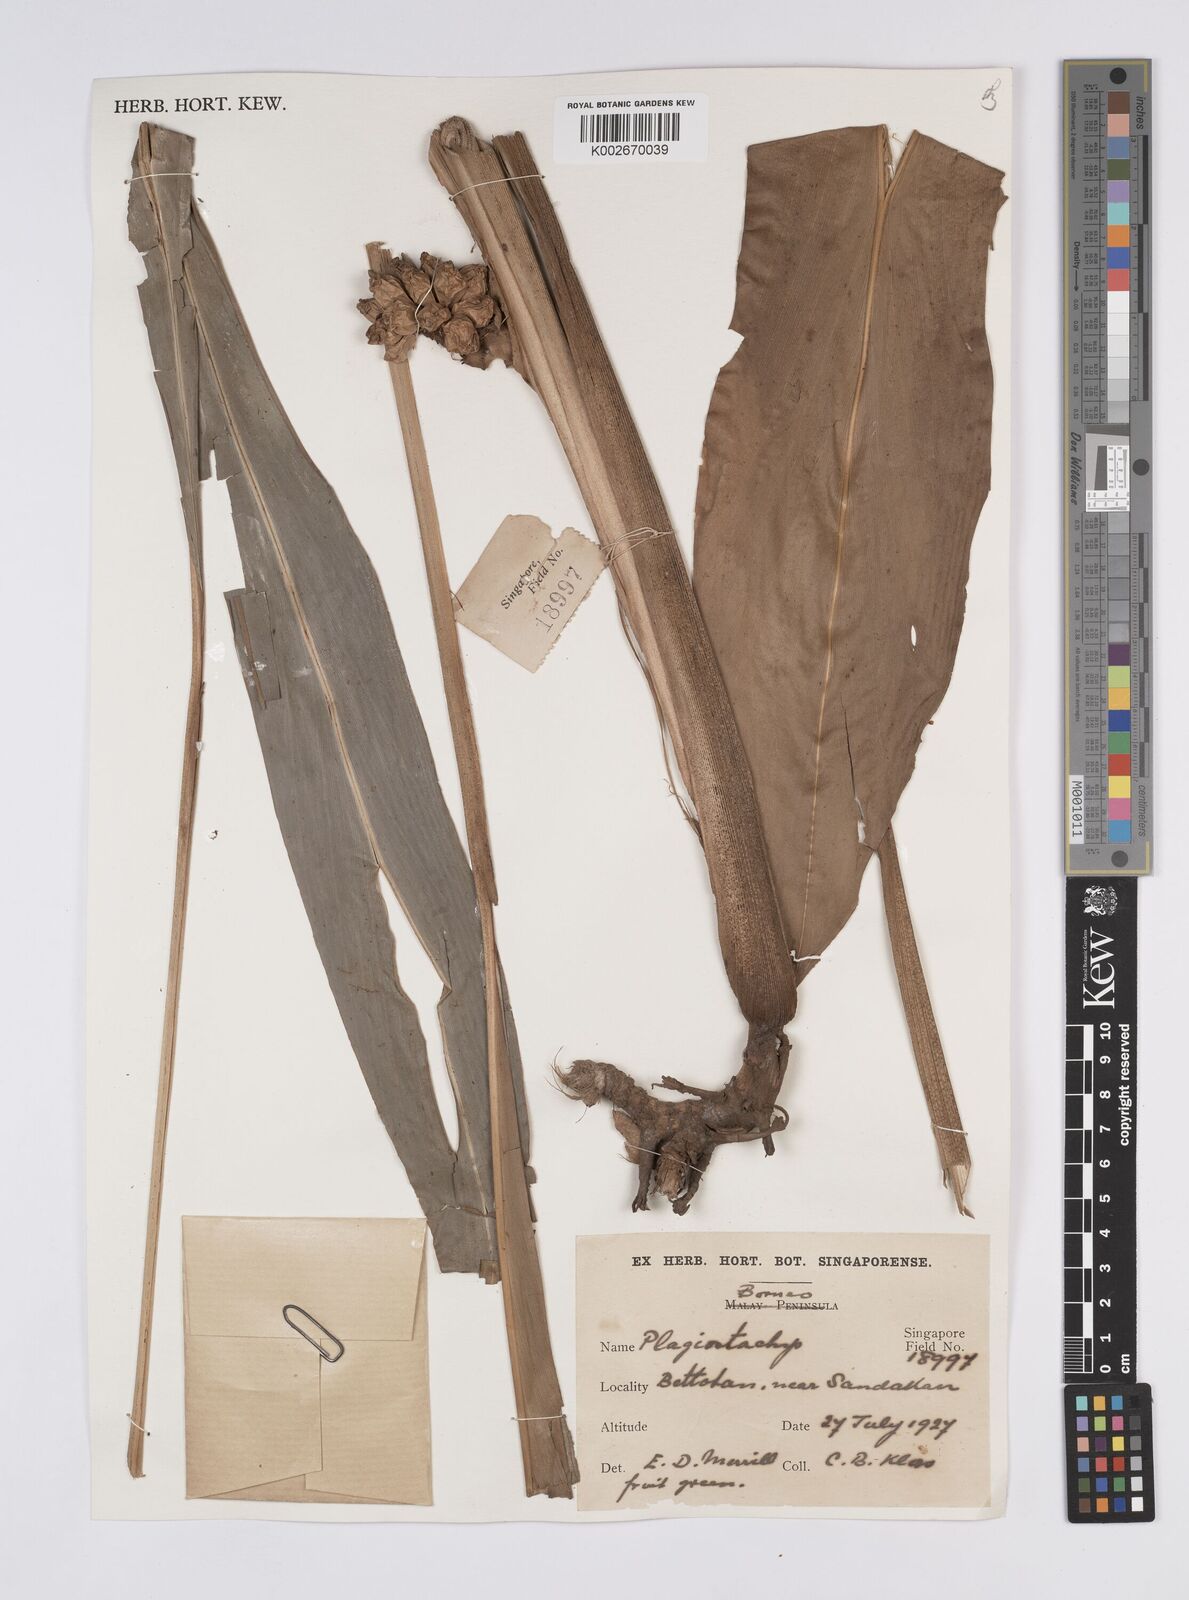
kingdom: Plantae
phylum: Tracheophyta
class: Liliopsida
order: Zingiberales
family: Zingiberaceae
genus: Plagiostachys
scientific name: Plagiostachys
